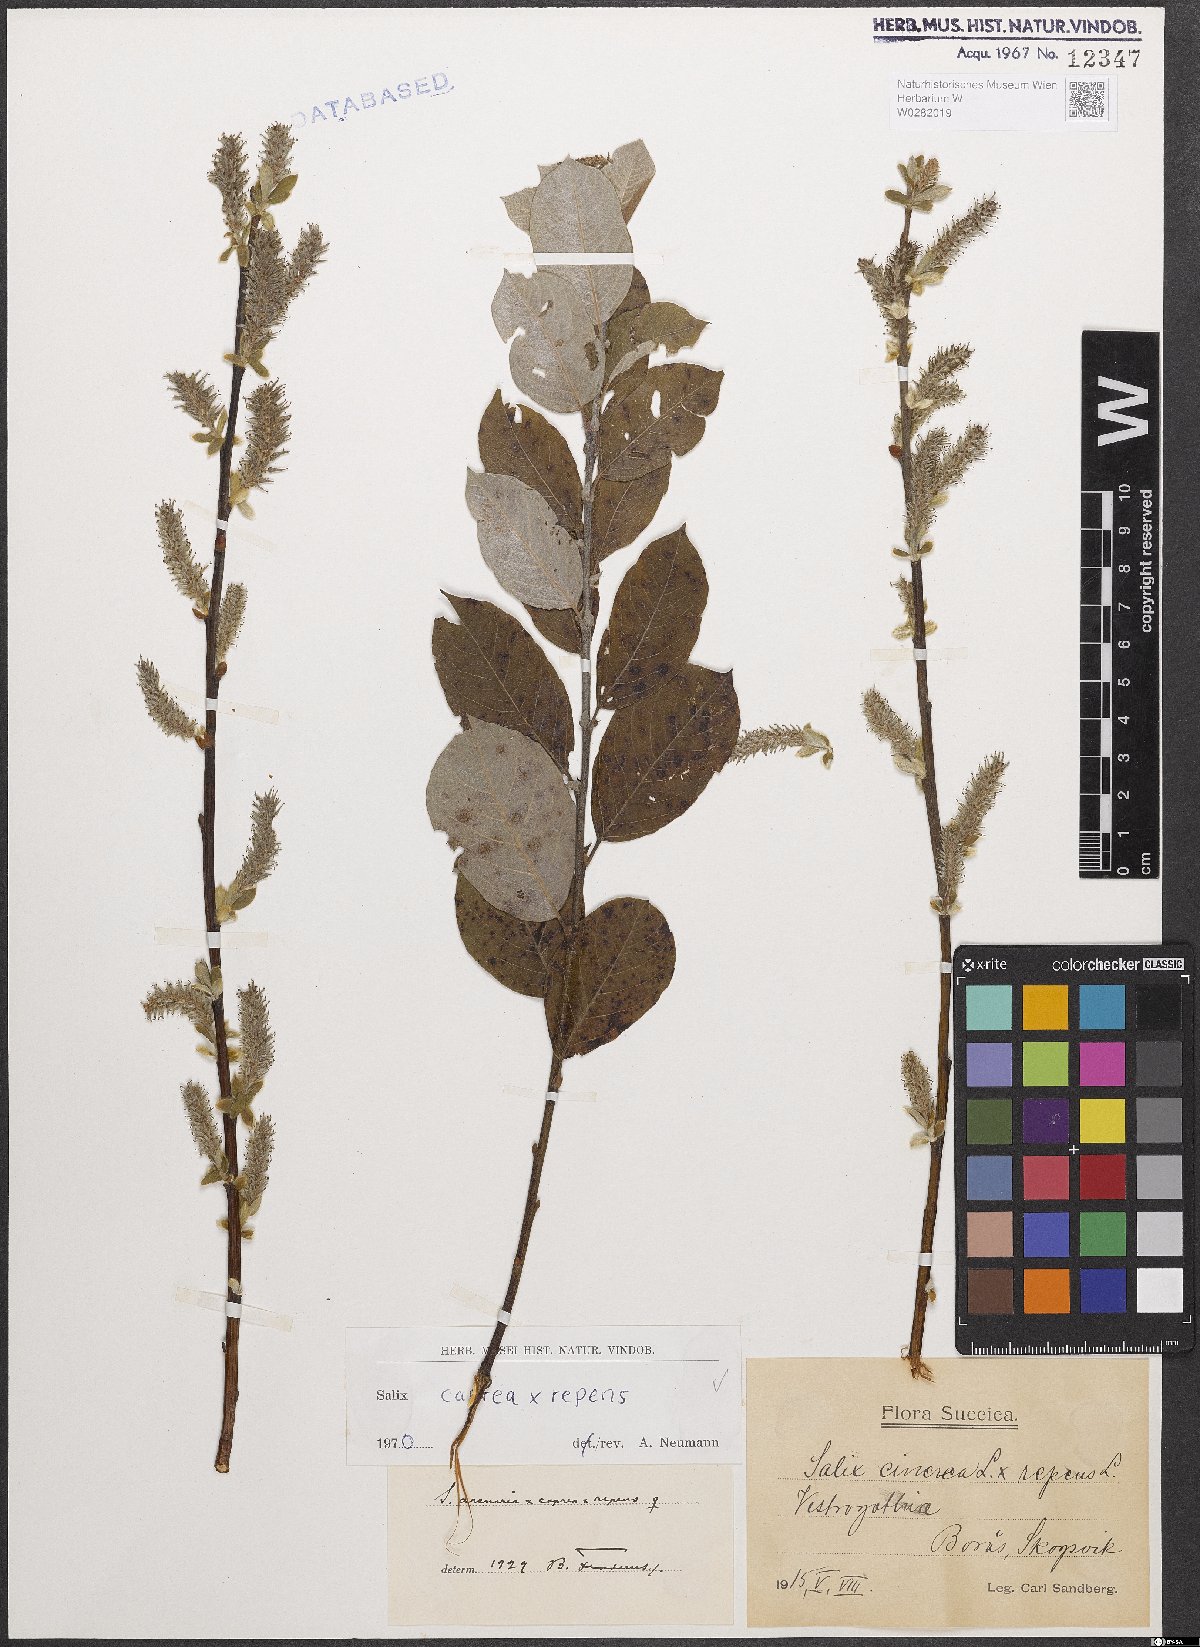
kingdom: Plantae
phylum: Tracheophyta
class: Magnoliopsida
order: Malpighiales
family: Salicaceae
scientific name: Salicaceae
